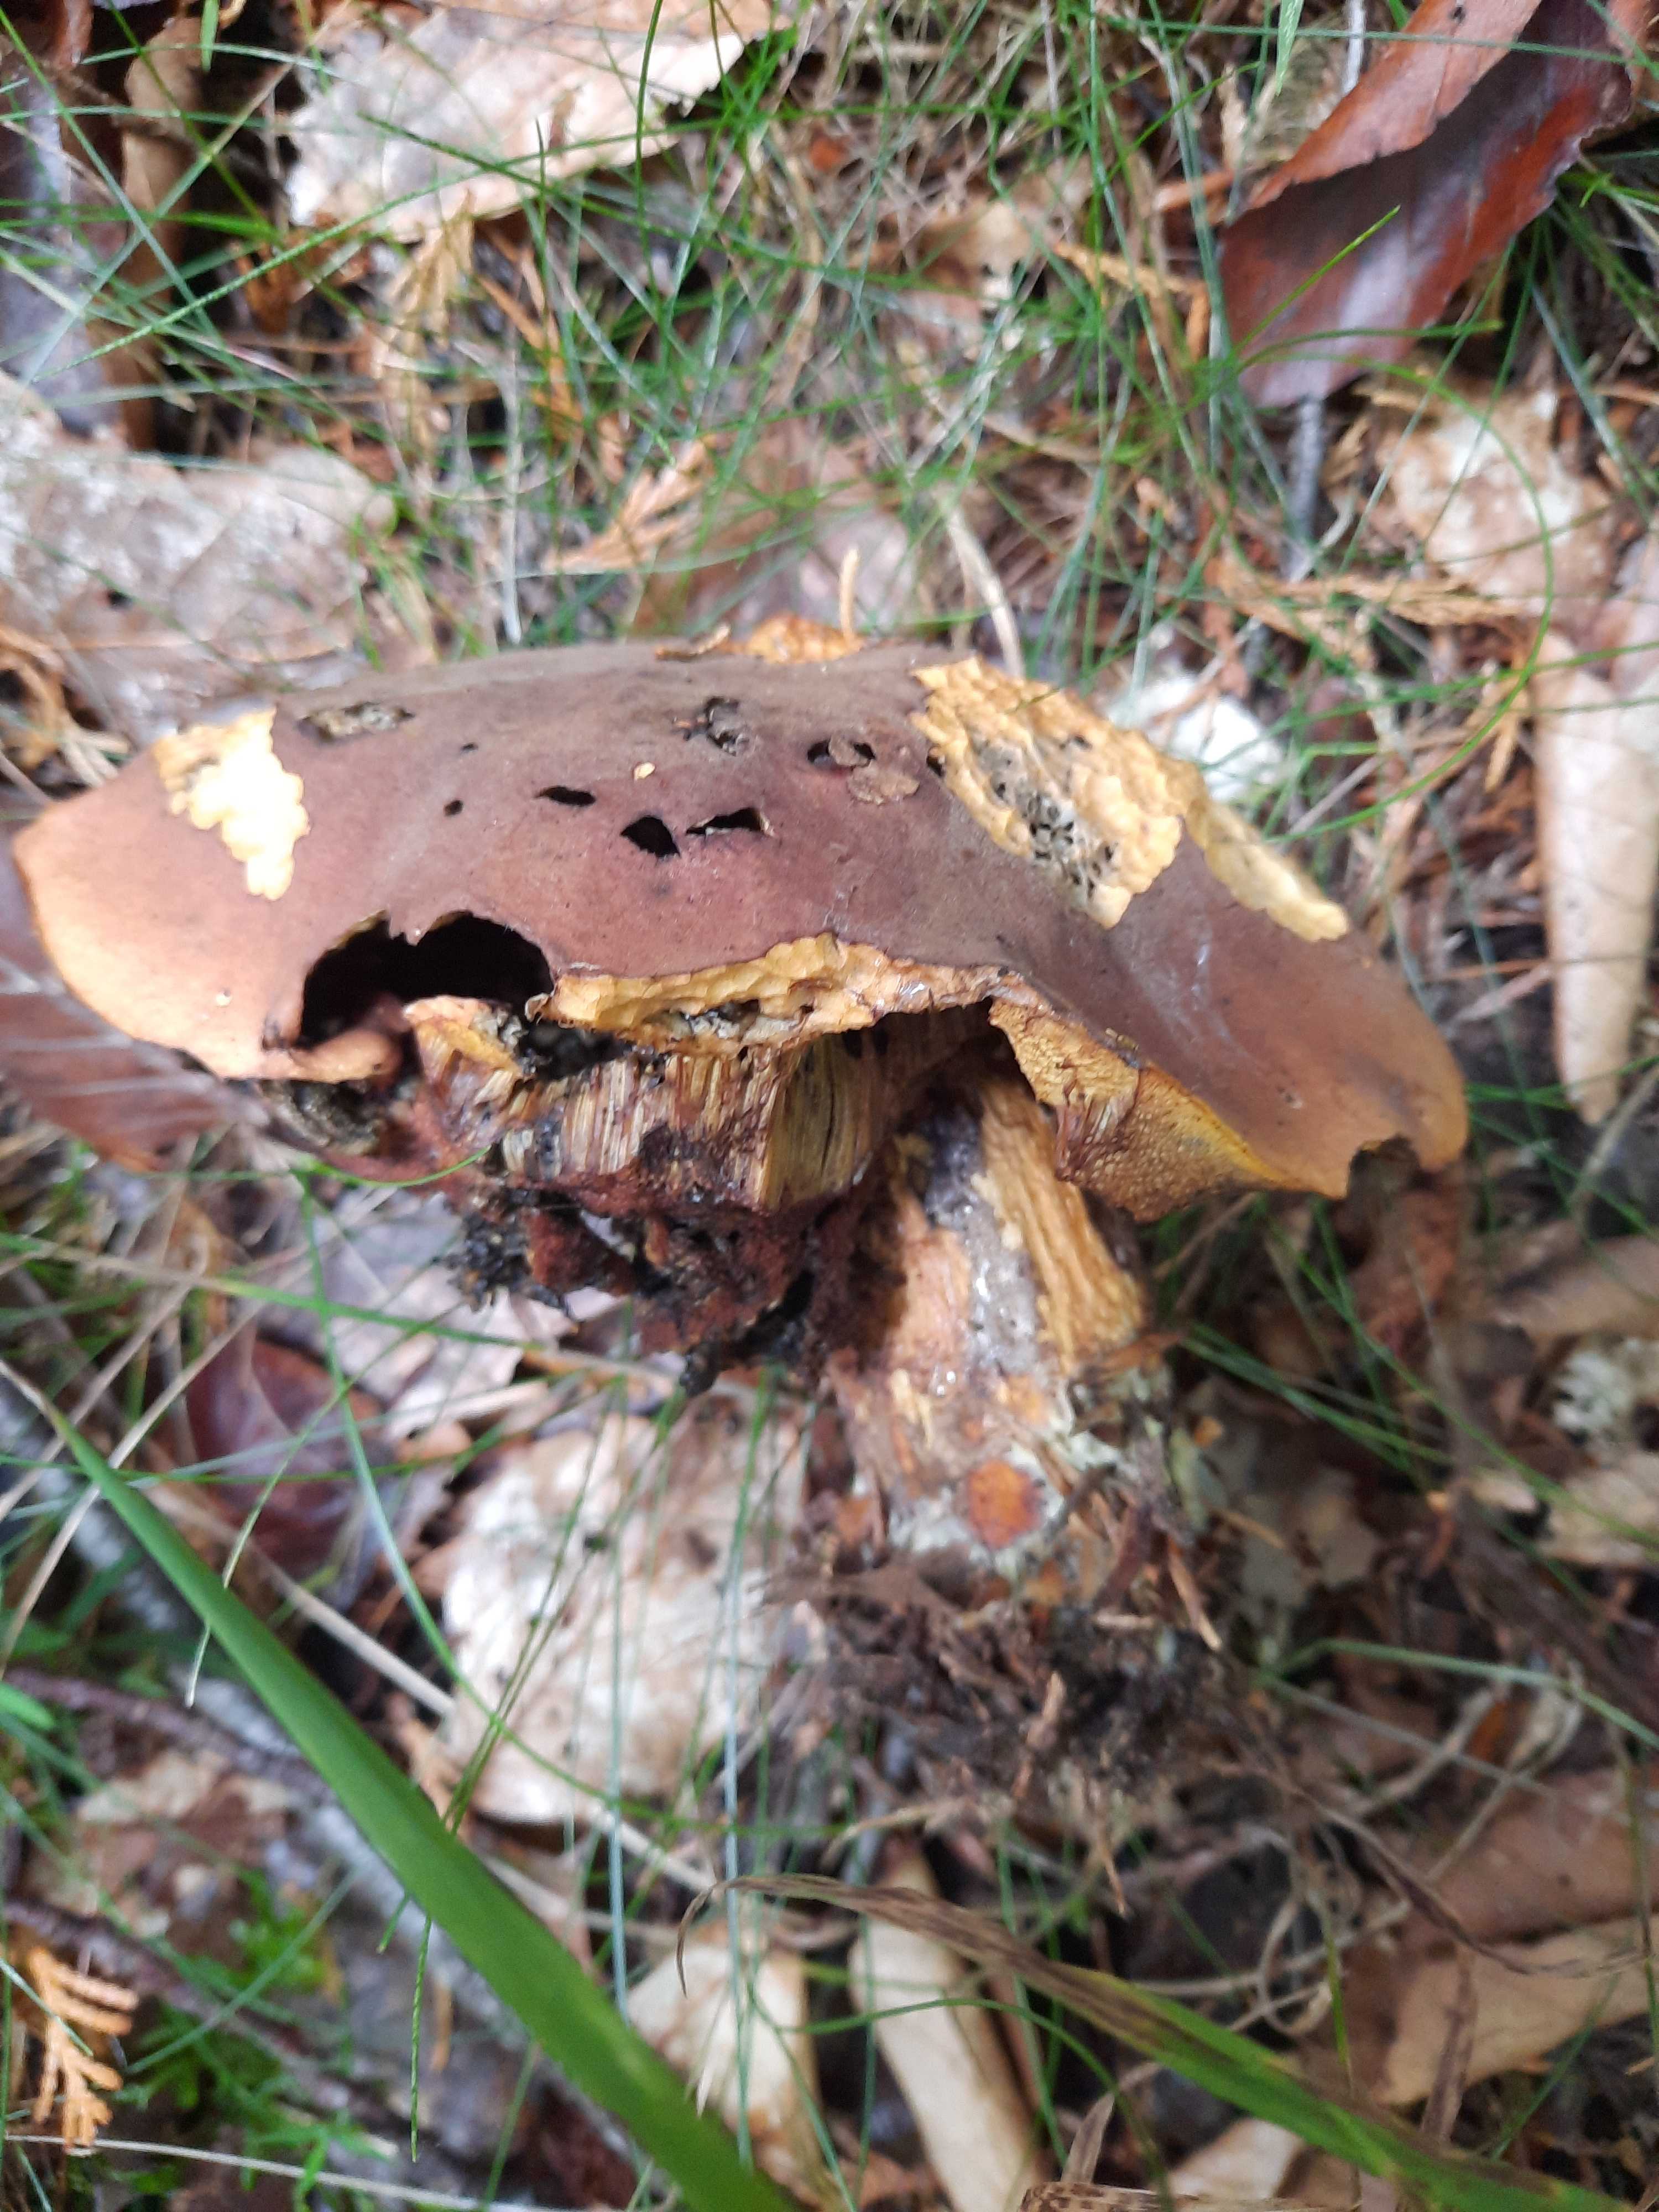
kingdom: Fungi
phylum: Basidiomycota
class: Agaricomycetes
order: Boletales
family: Boletaceae
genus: Neoboletus
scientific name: Neoboletus erythropus
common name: punktstokket indigorørhat
